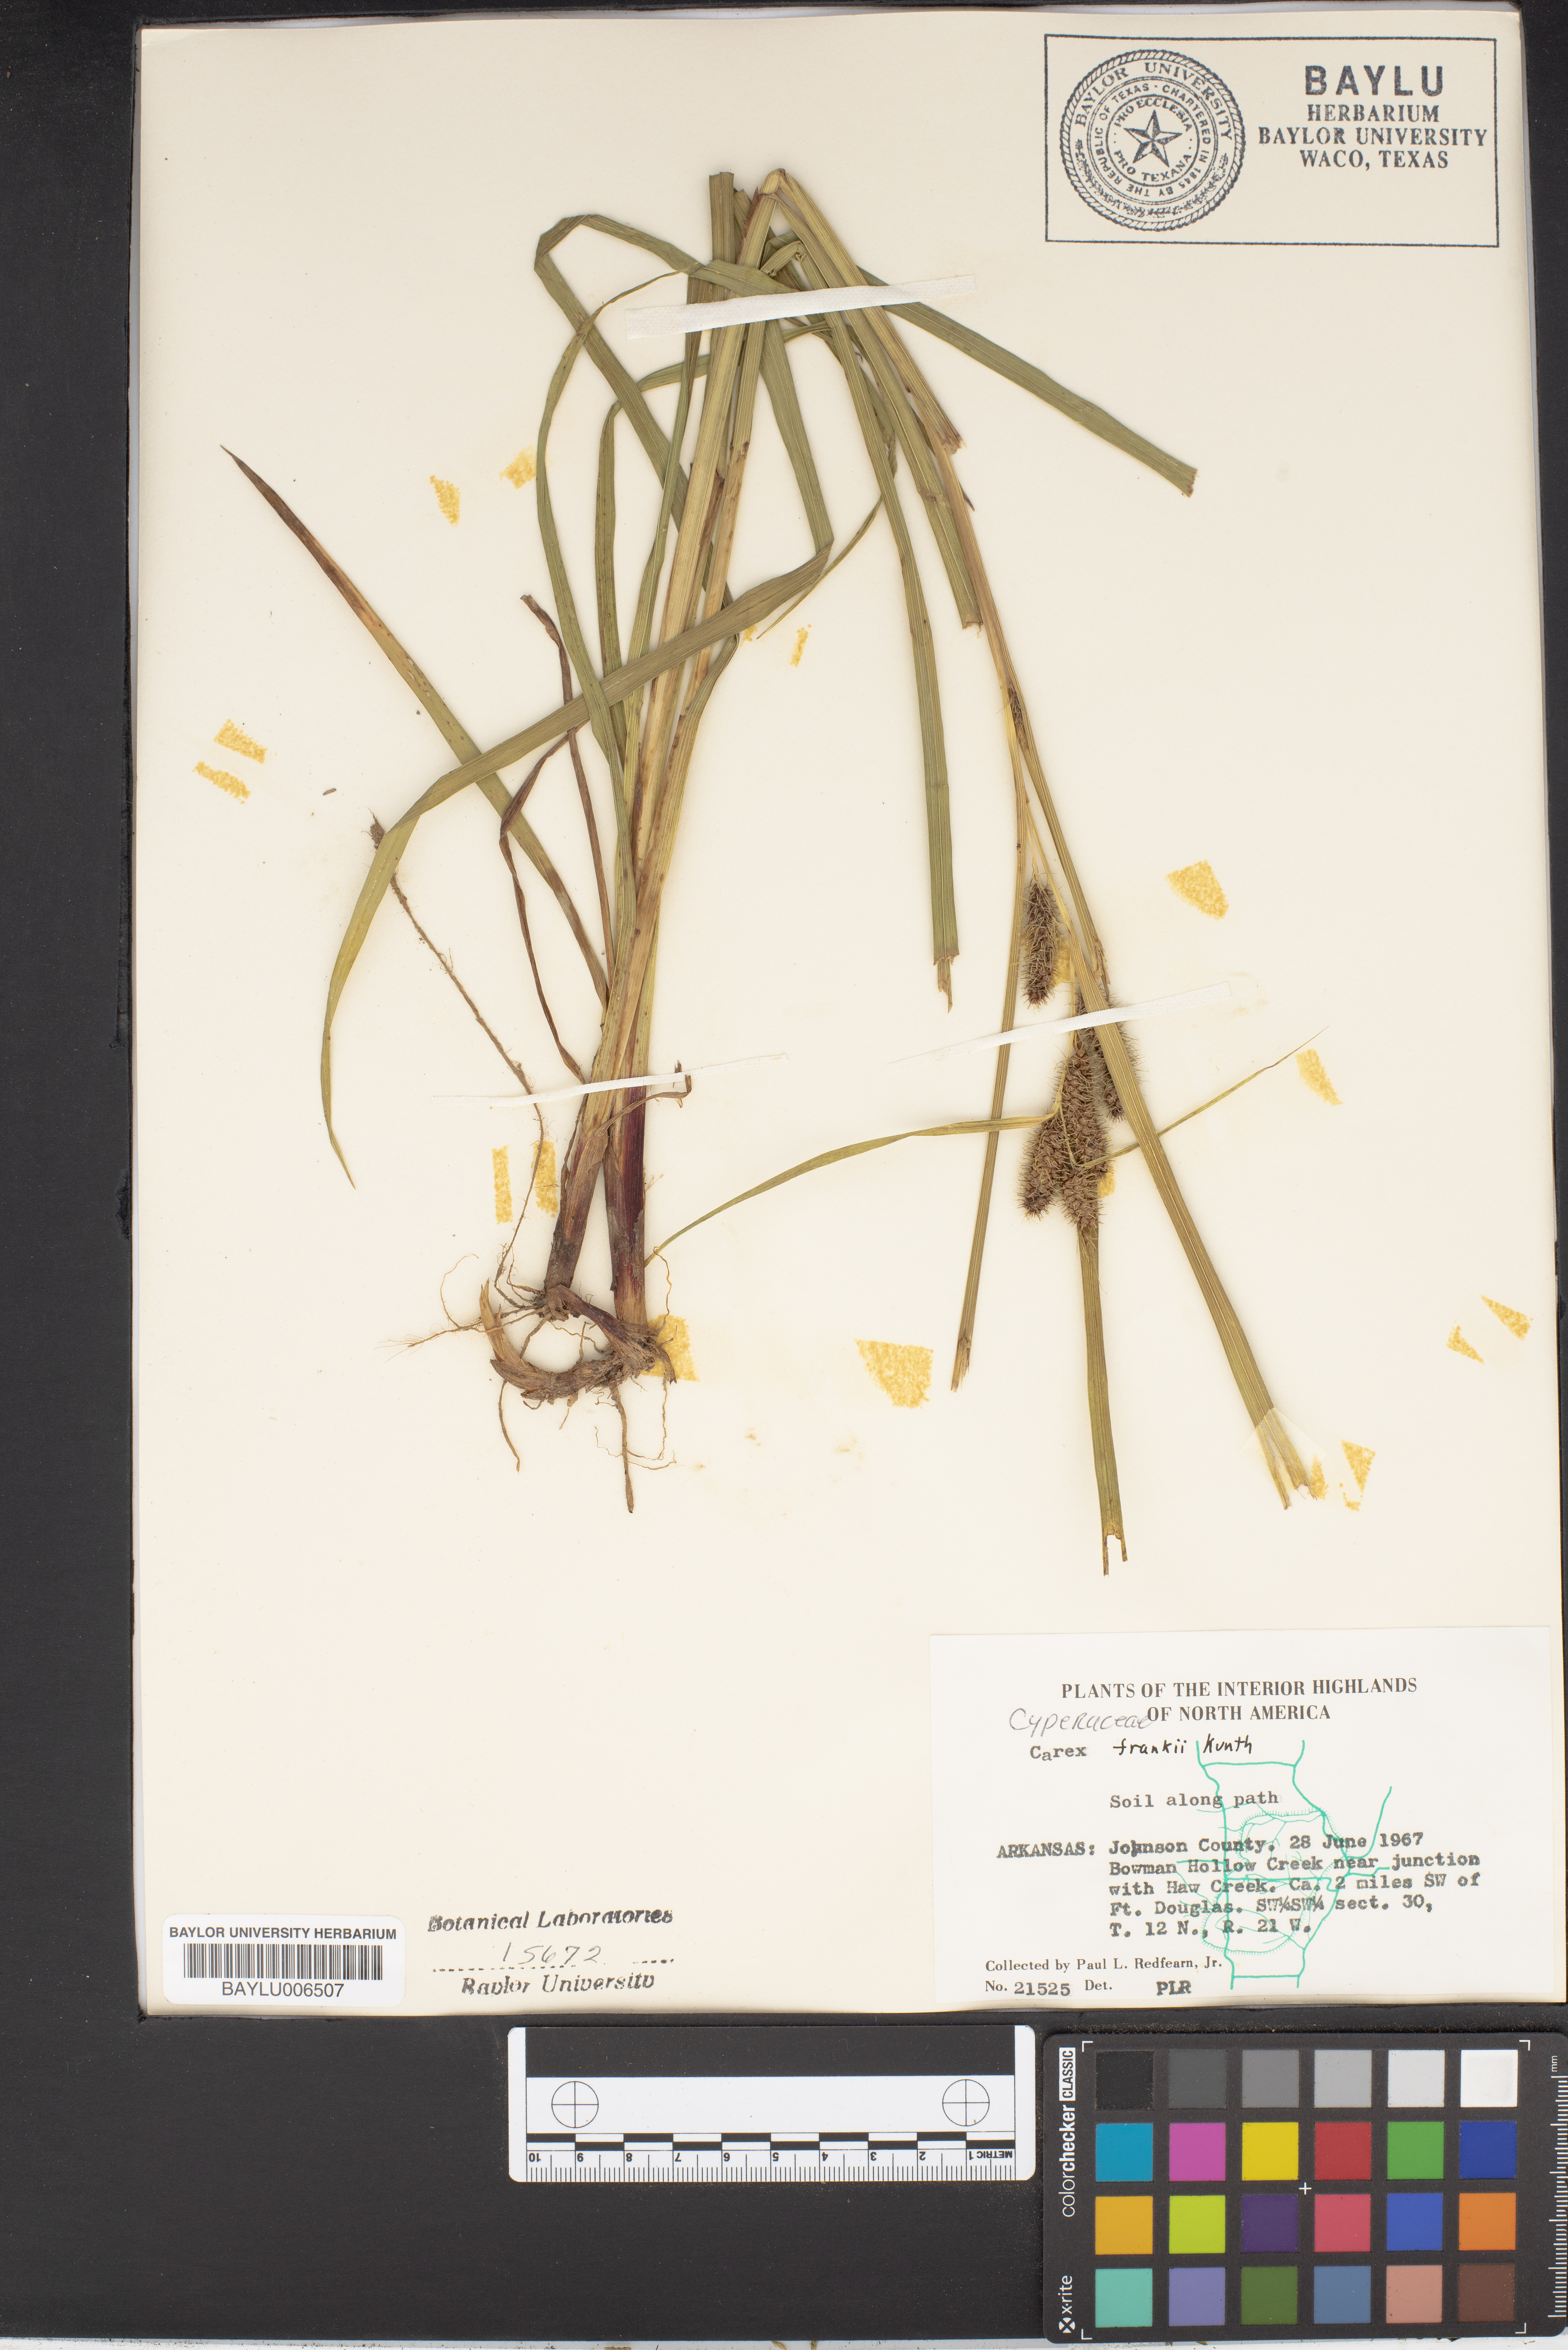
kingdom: Plantae
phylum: Tracheophyta
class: Liliopsida
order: Poales
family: Cyperaceae
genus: Carex
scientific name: Carex frankii
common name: Frank's sedge
